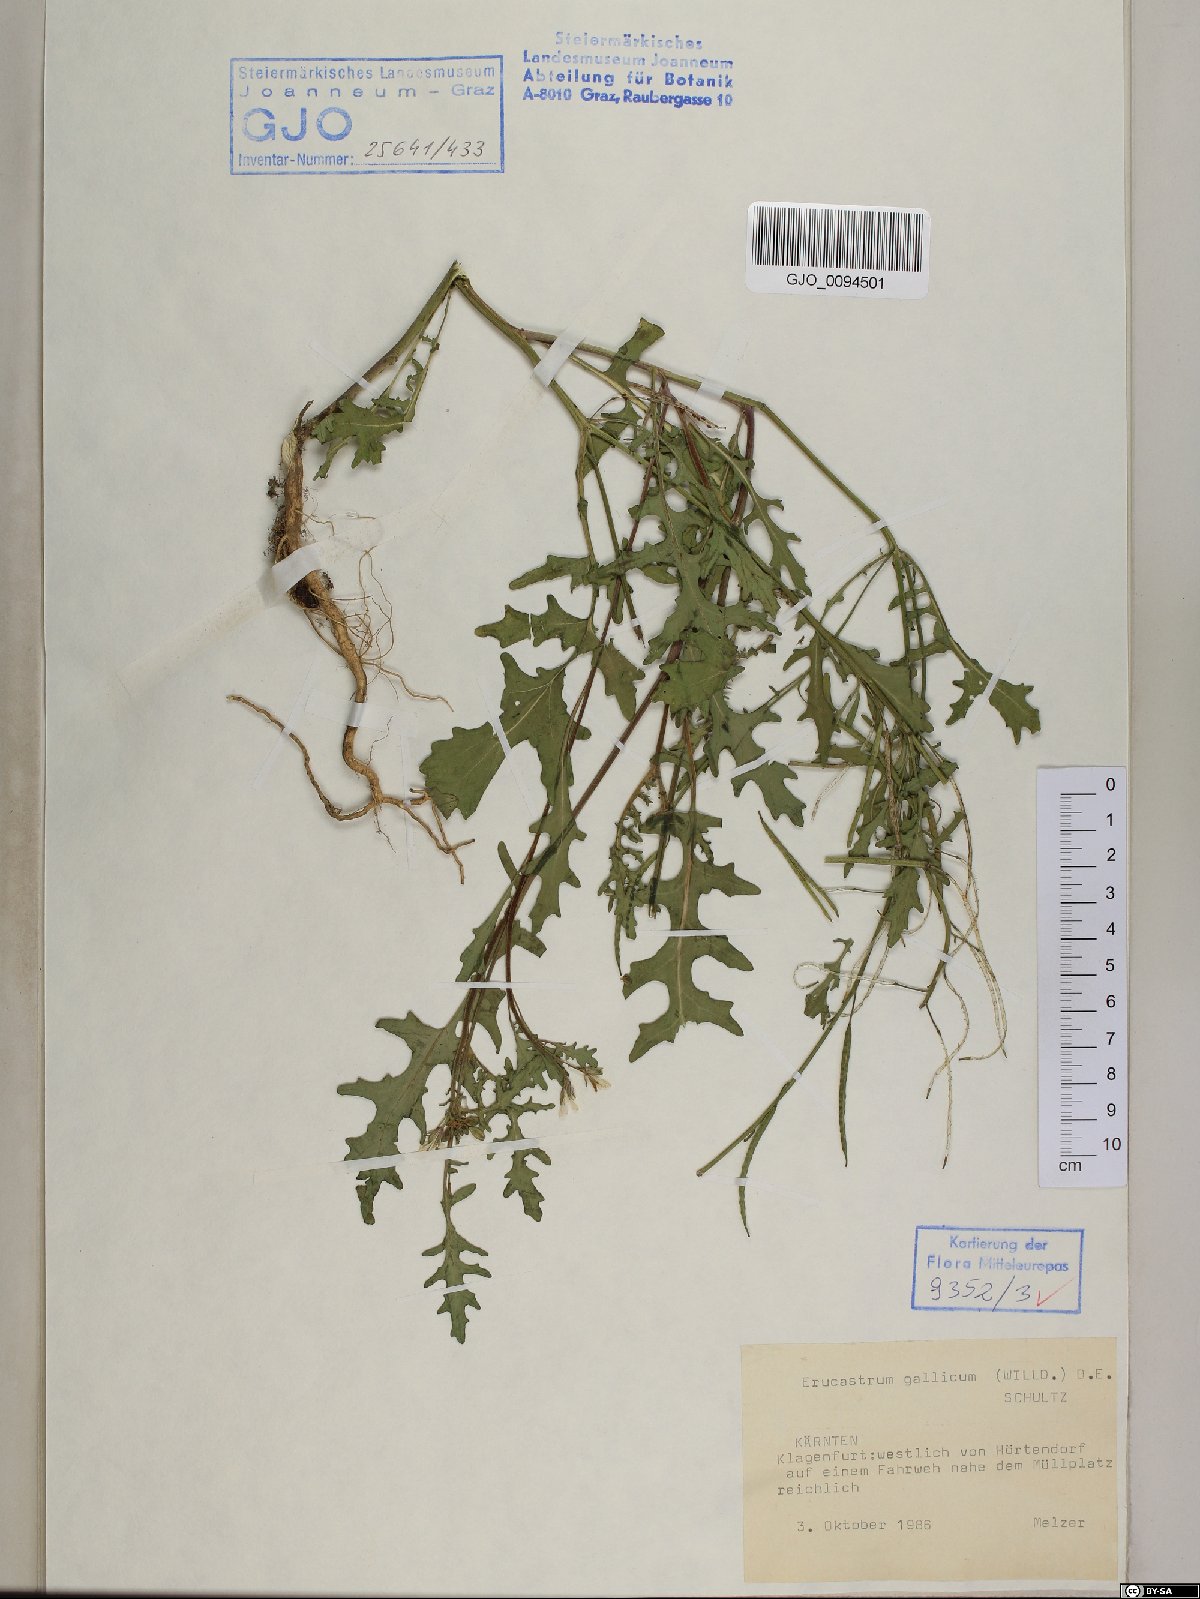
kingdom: Plantae
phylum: Tracheophyta
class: Magnoliopsida
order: Brassicales
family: Brassicaceae
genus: Erucastrum
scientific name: Erucastrum gallicum
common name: Hairy rocket
